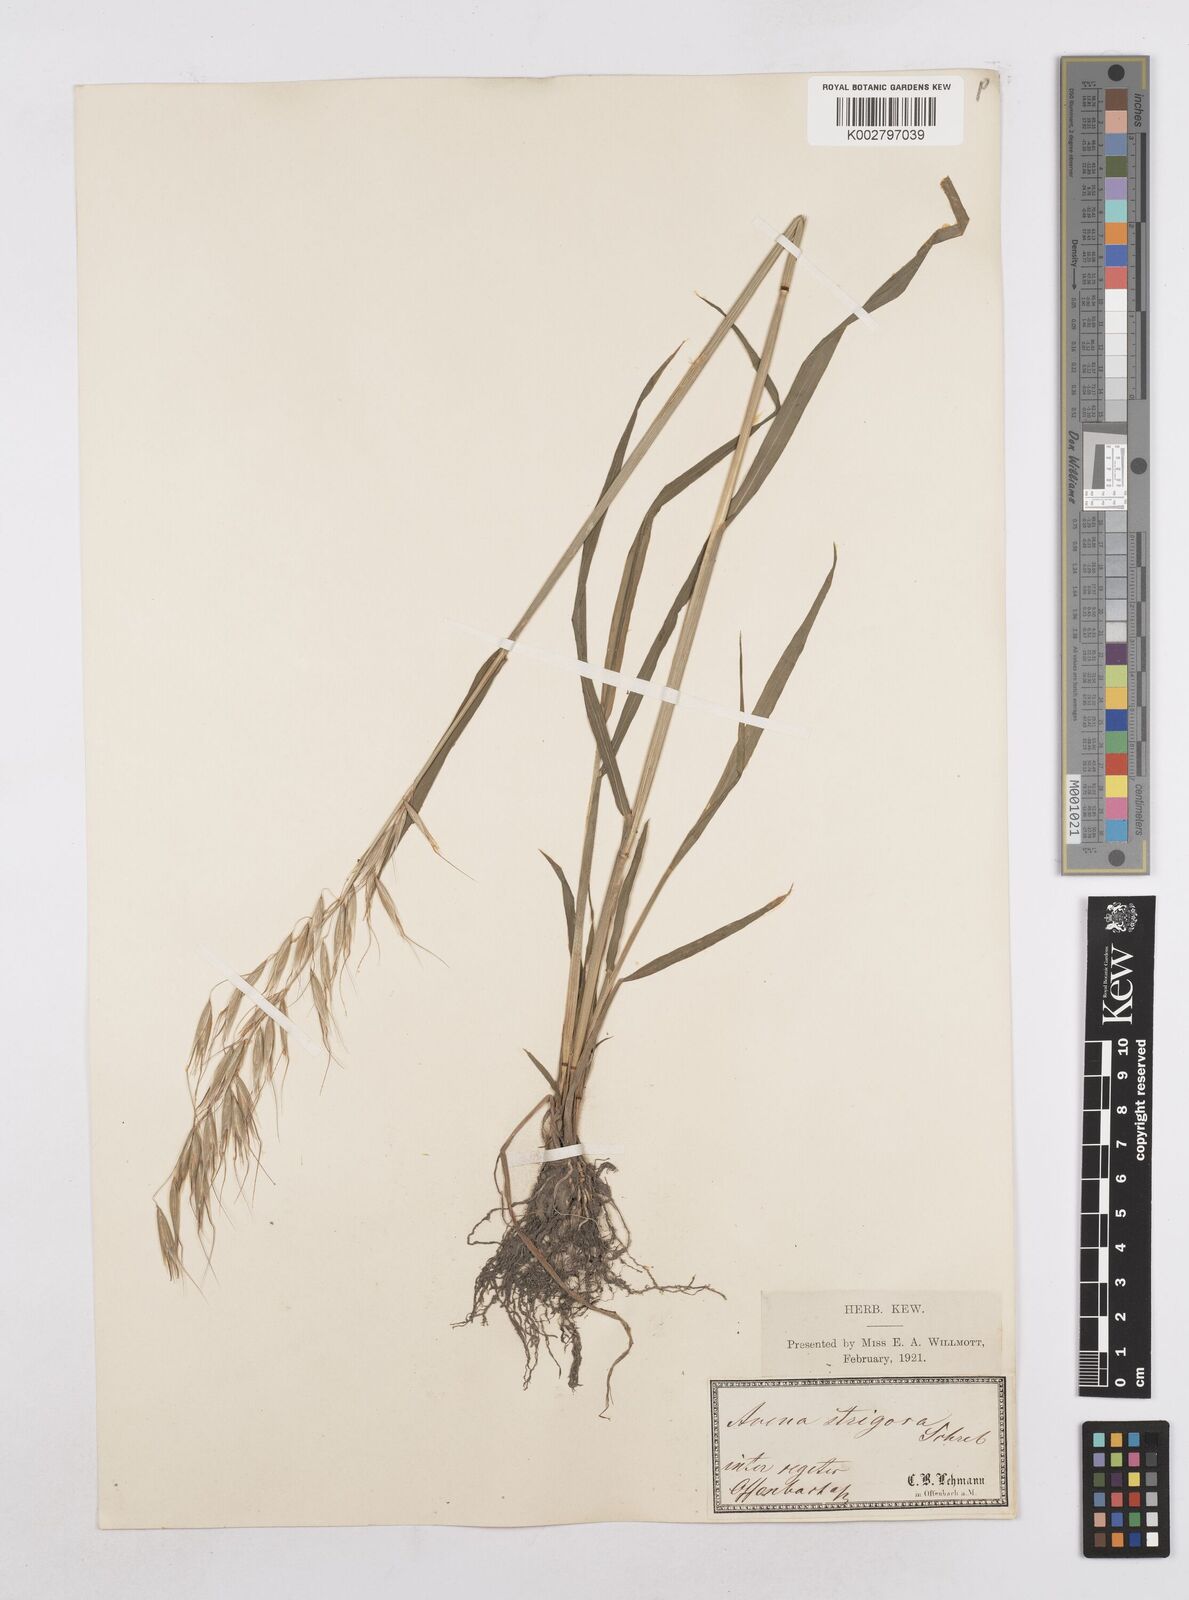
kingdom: Plantae
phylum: Tracheophyta
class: Liliopsida
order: Poales
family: Poaceae
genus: Avena
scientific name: Avena strigosa
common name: Bristle oat
